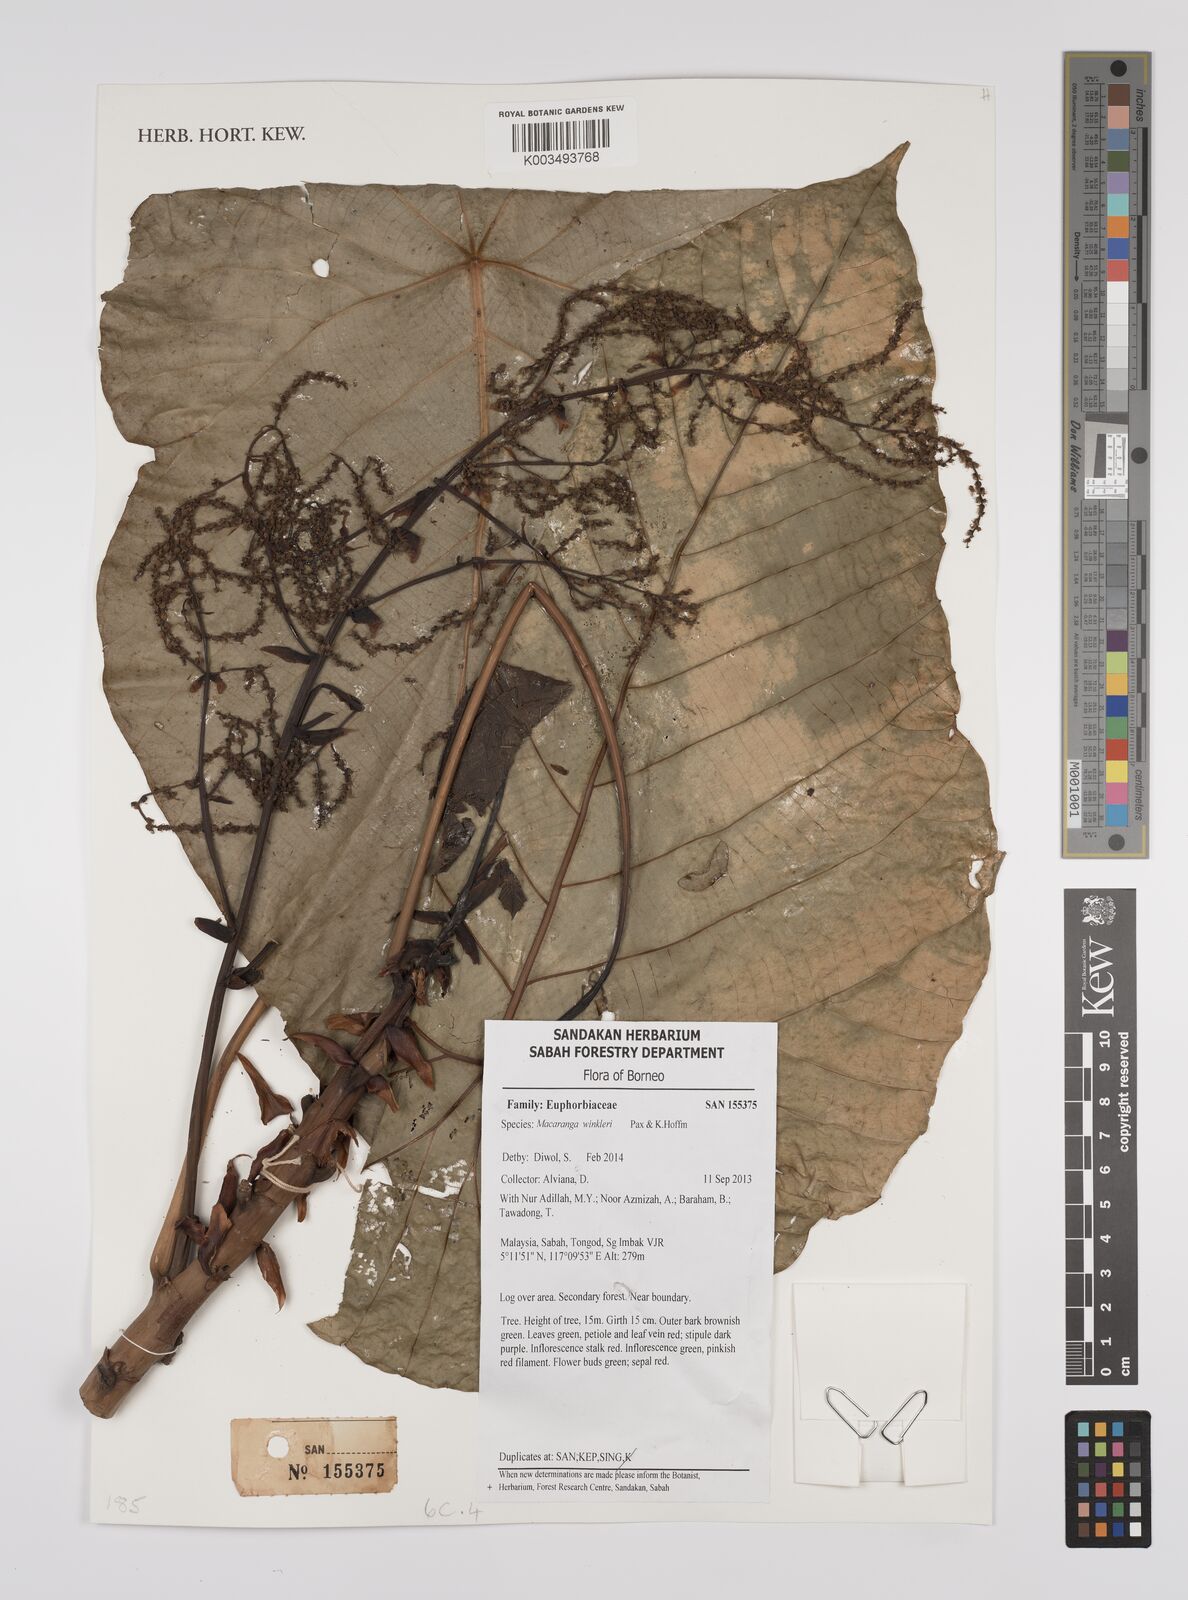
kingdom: Plantae
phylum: Tracheophyta
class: Magnoliopsida
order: Malpighiales
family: Euphorbiaceae
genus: Macaranga
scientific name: Macaranga winkleri
